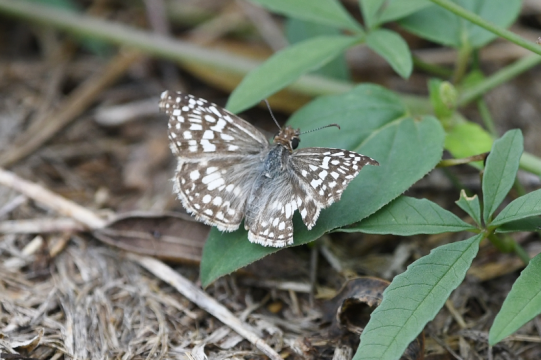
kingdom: Animalia
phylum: Arthropoda
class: Insecta
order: Lepidoptera
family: Hesperiidae
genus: Pyrgus
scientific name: Pyrgus oileus
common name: Tropical Checkered-Skipper
